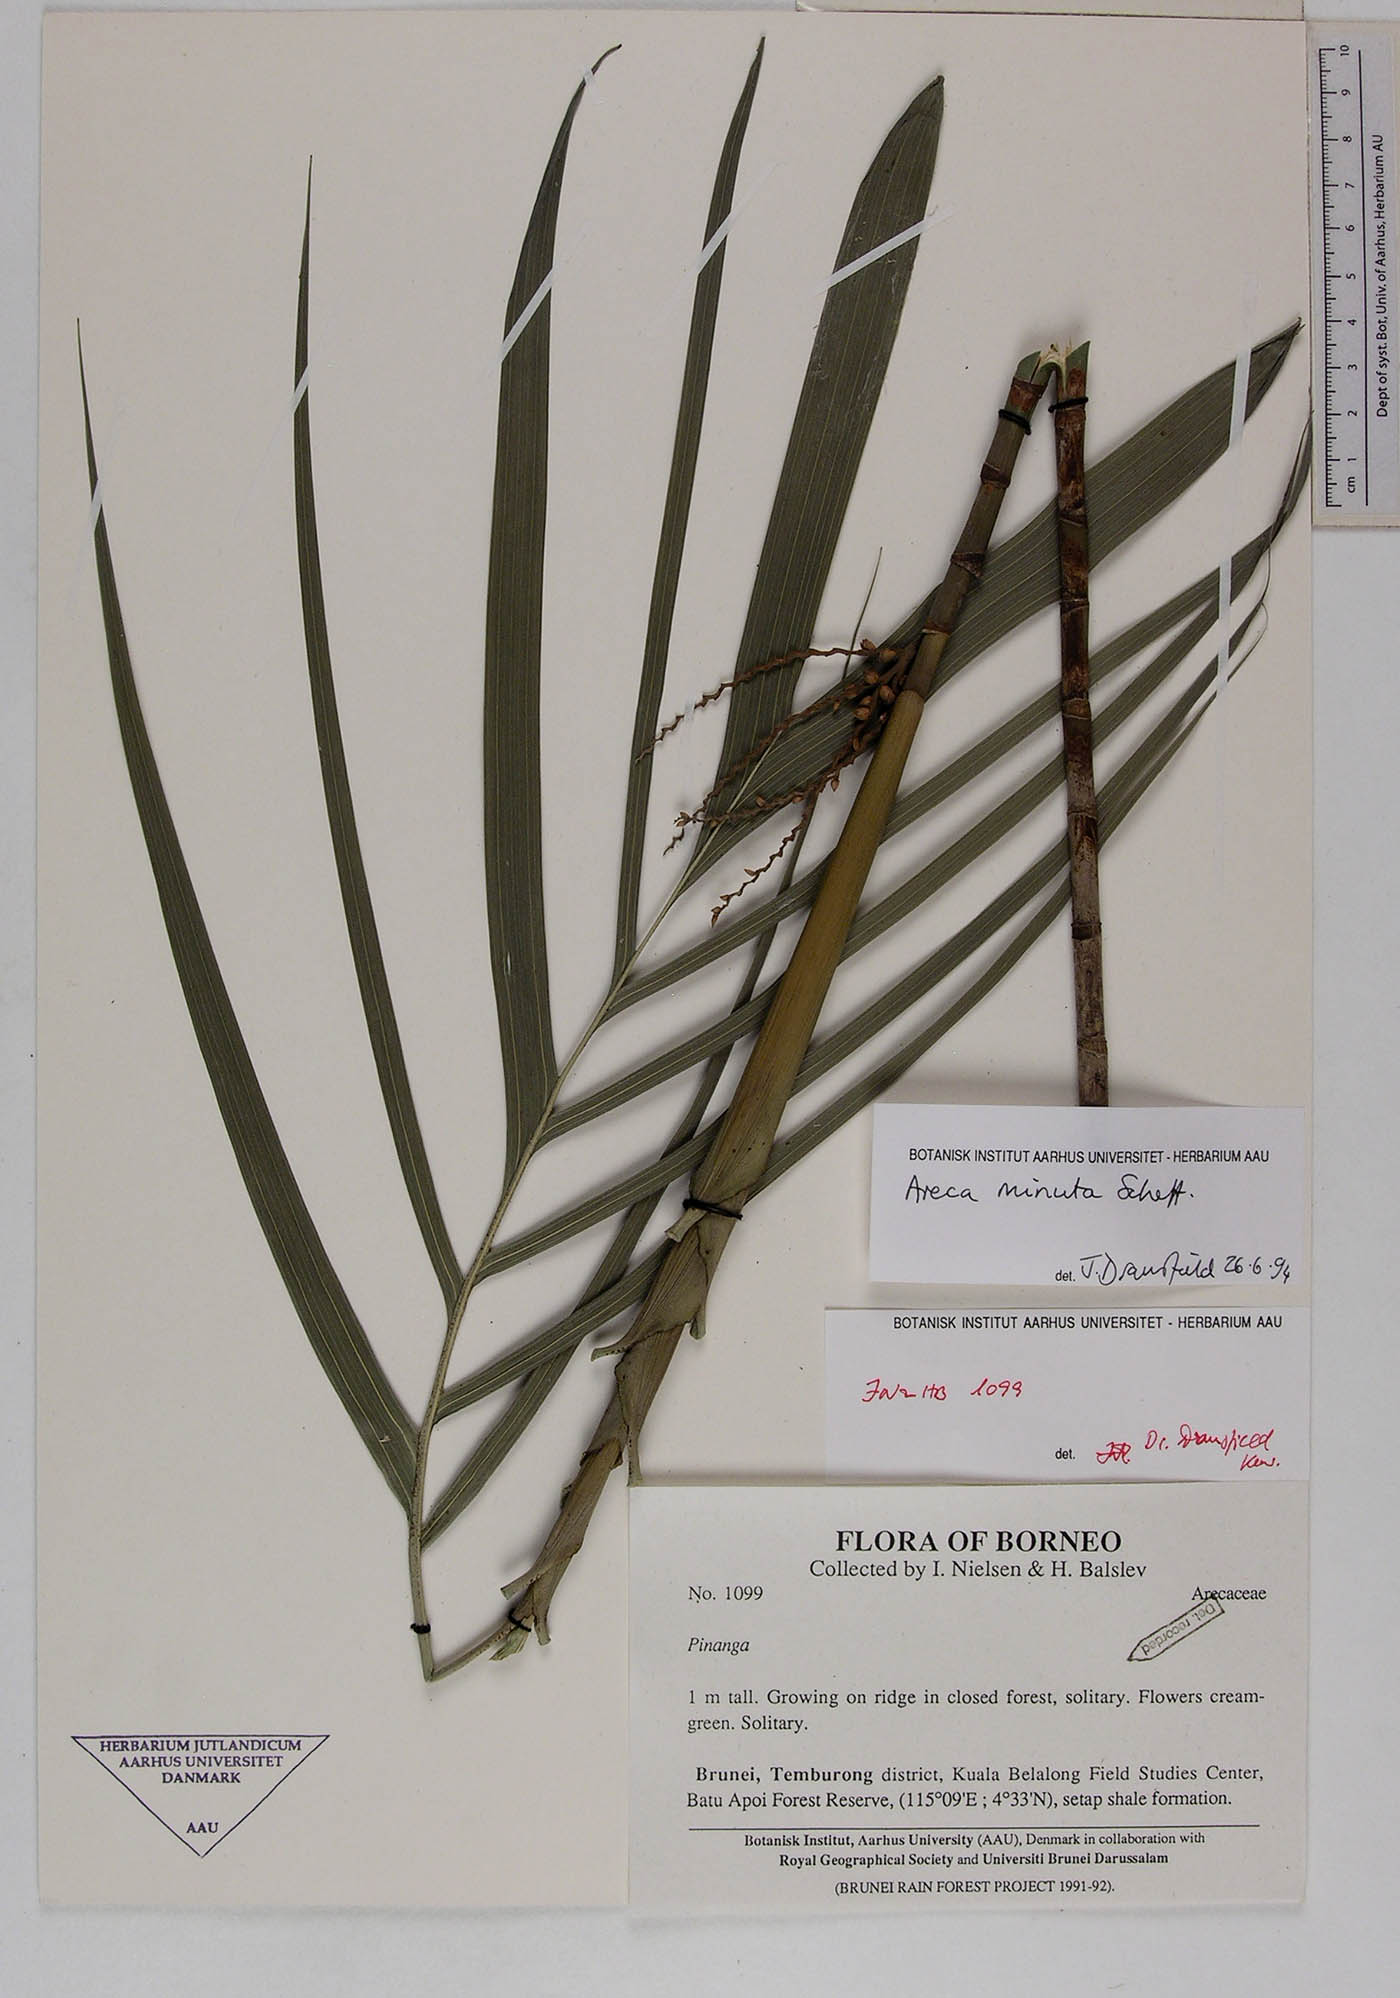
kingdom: Plantae
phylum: Tracheophyta
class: Liliopsida
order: Arecales
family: Arecaceae
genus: Areca
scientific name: Areca minuta
